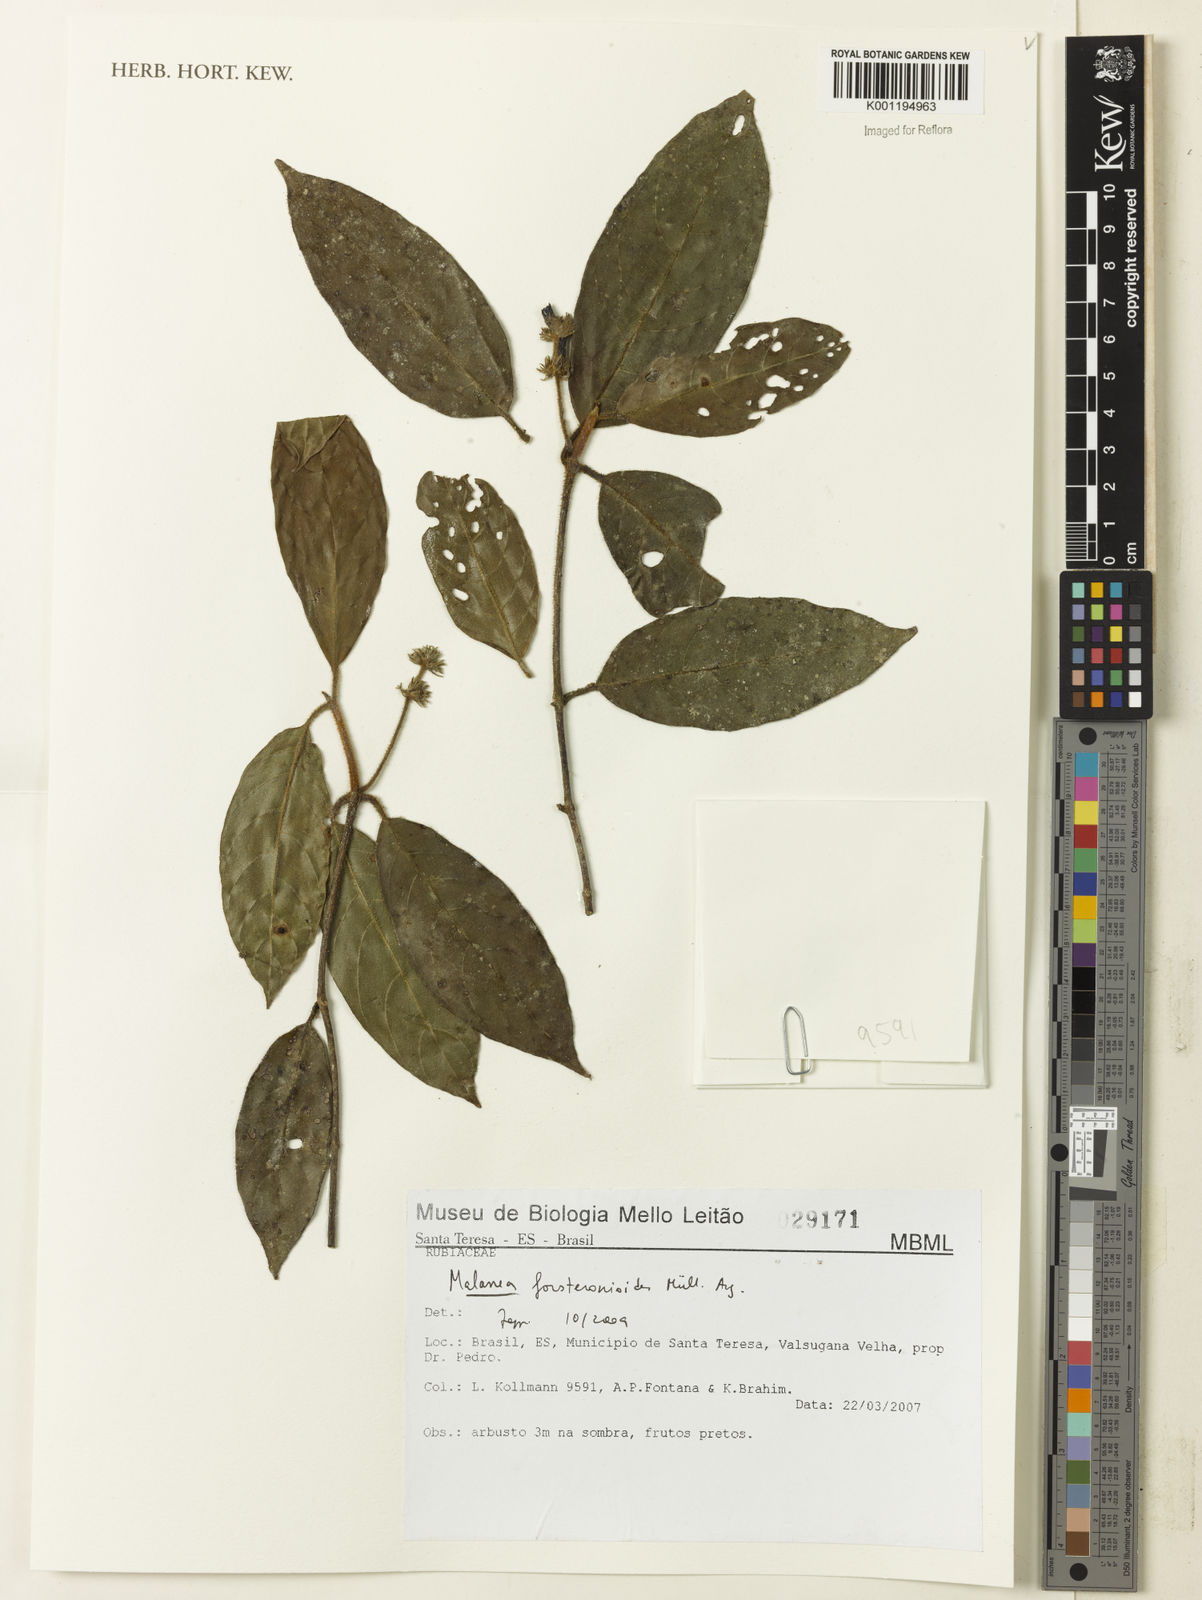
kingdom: Plantae
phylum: Tracheophyta
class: Magnoliopsida
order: Gentianales
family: Rubiaceae
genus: Malanea
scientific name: Malanea
